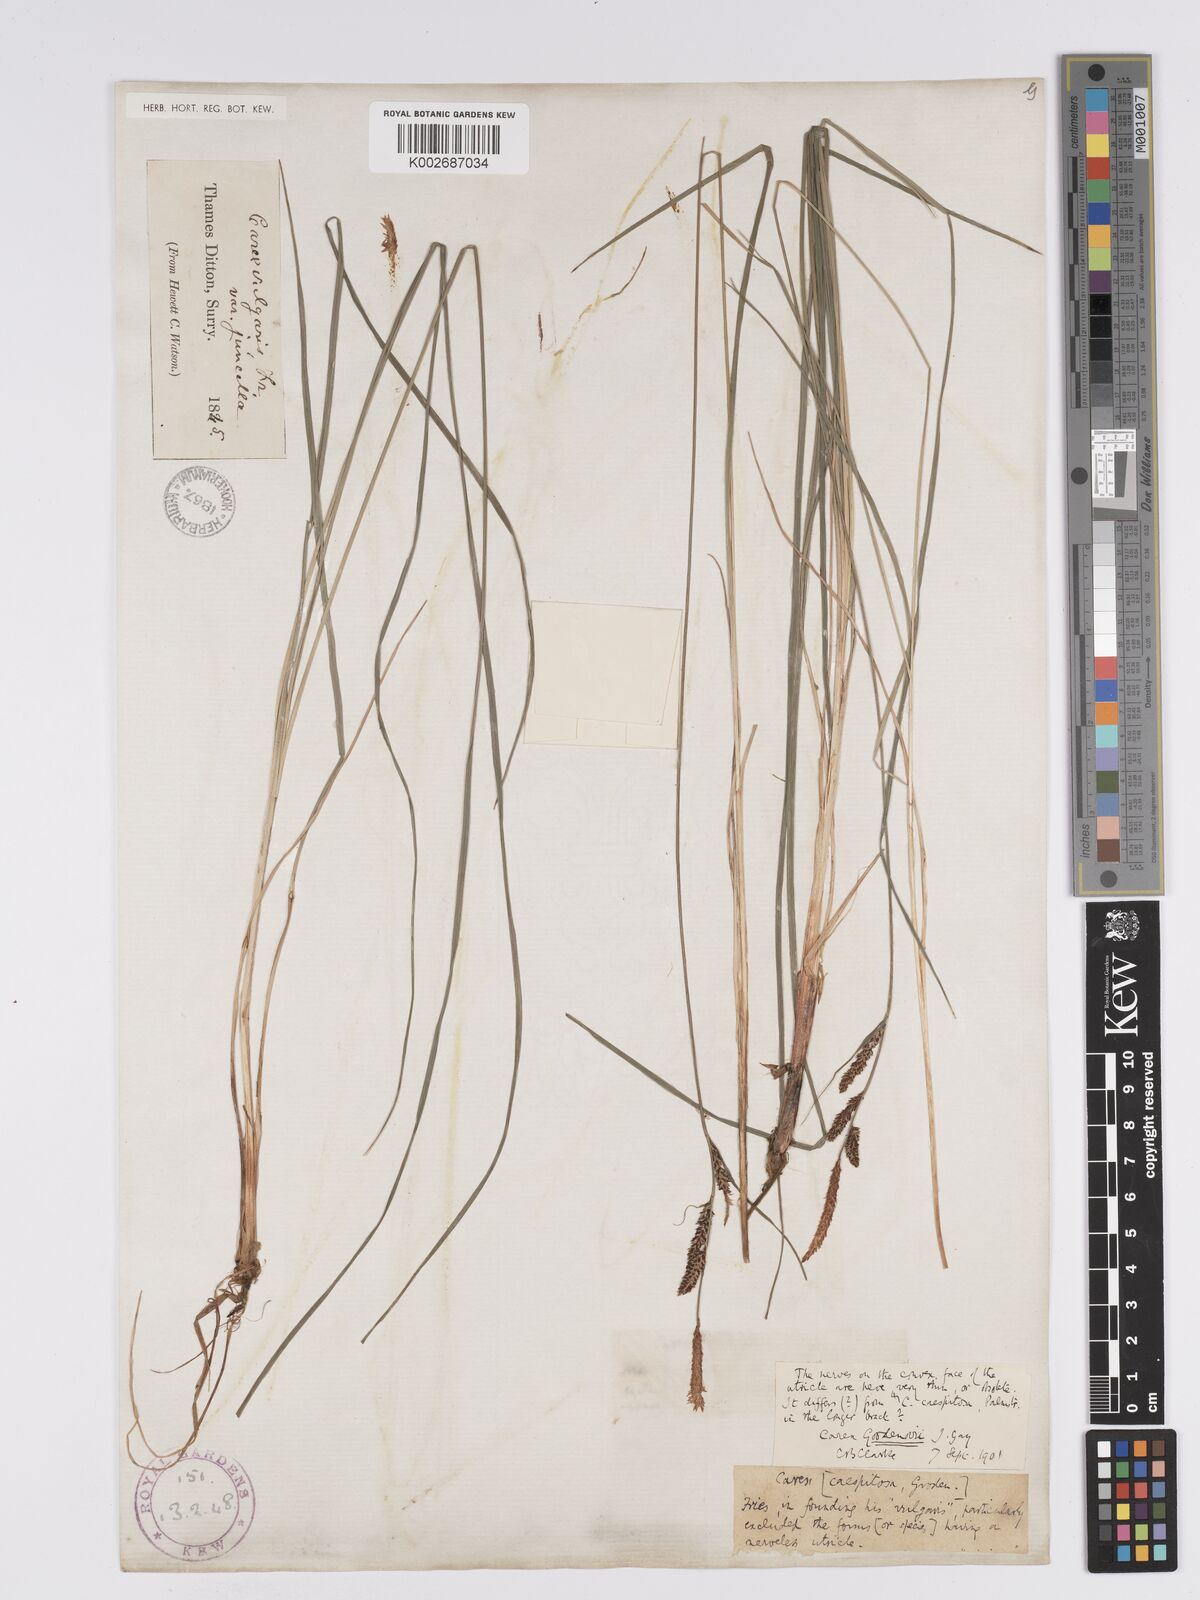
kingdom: Plantae
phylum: Tracheophyta
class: Liliopsida
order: Poales
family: Cyperaceae
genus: Carex
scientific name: Carex nigra
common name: Common sedge
